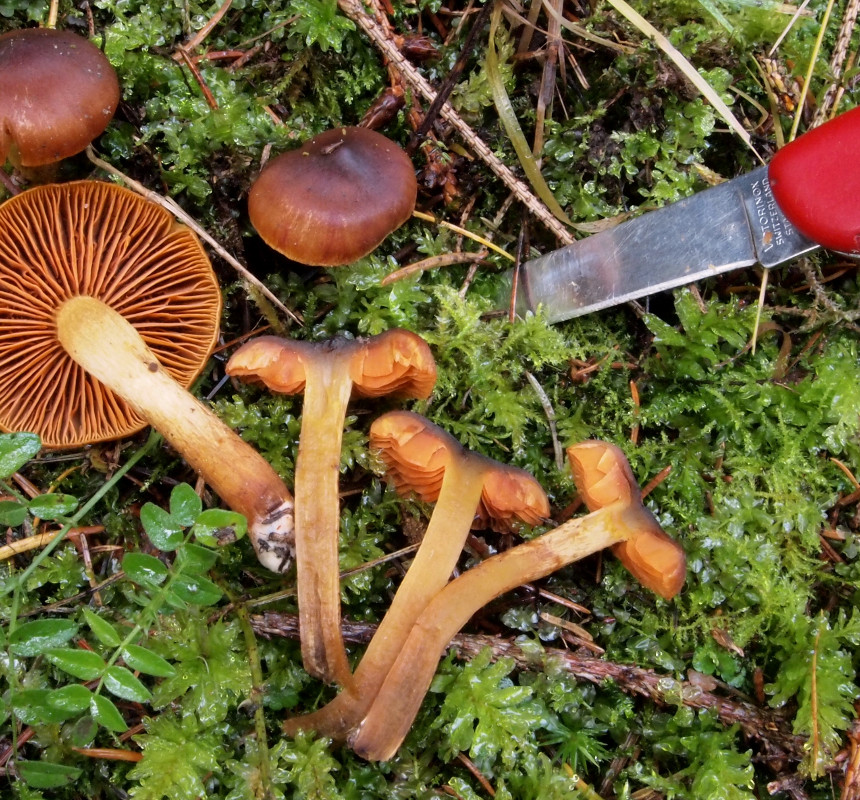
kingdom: Fungi
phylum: Basidiomycota
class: Agaricomycetes
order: Agaricales
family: Cortinariaceae
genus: Cortinarius
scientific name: Cortinarius cinnamomeus
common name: kanel-slørhat
